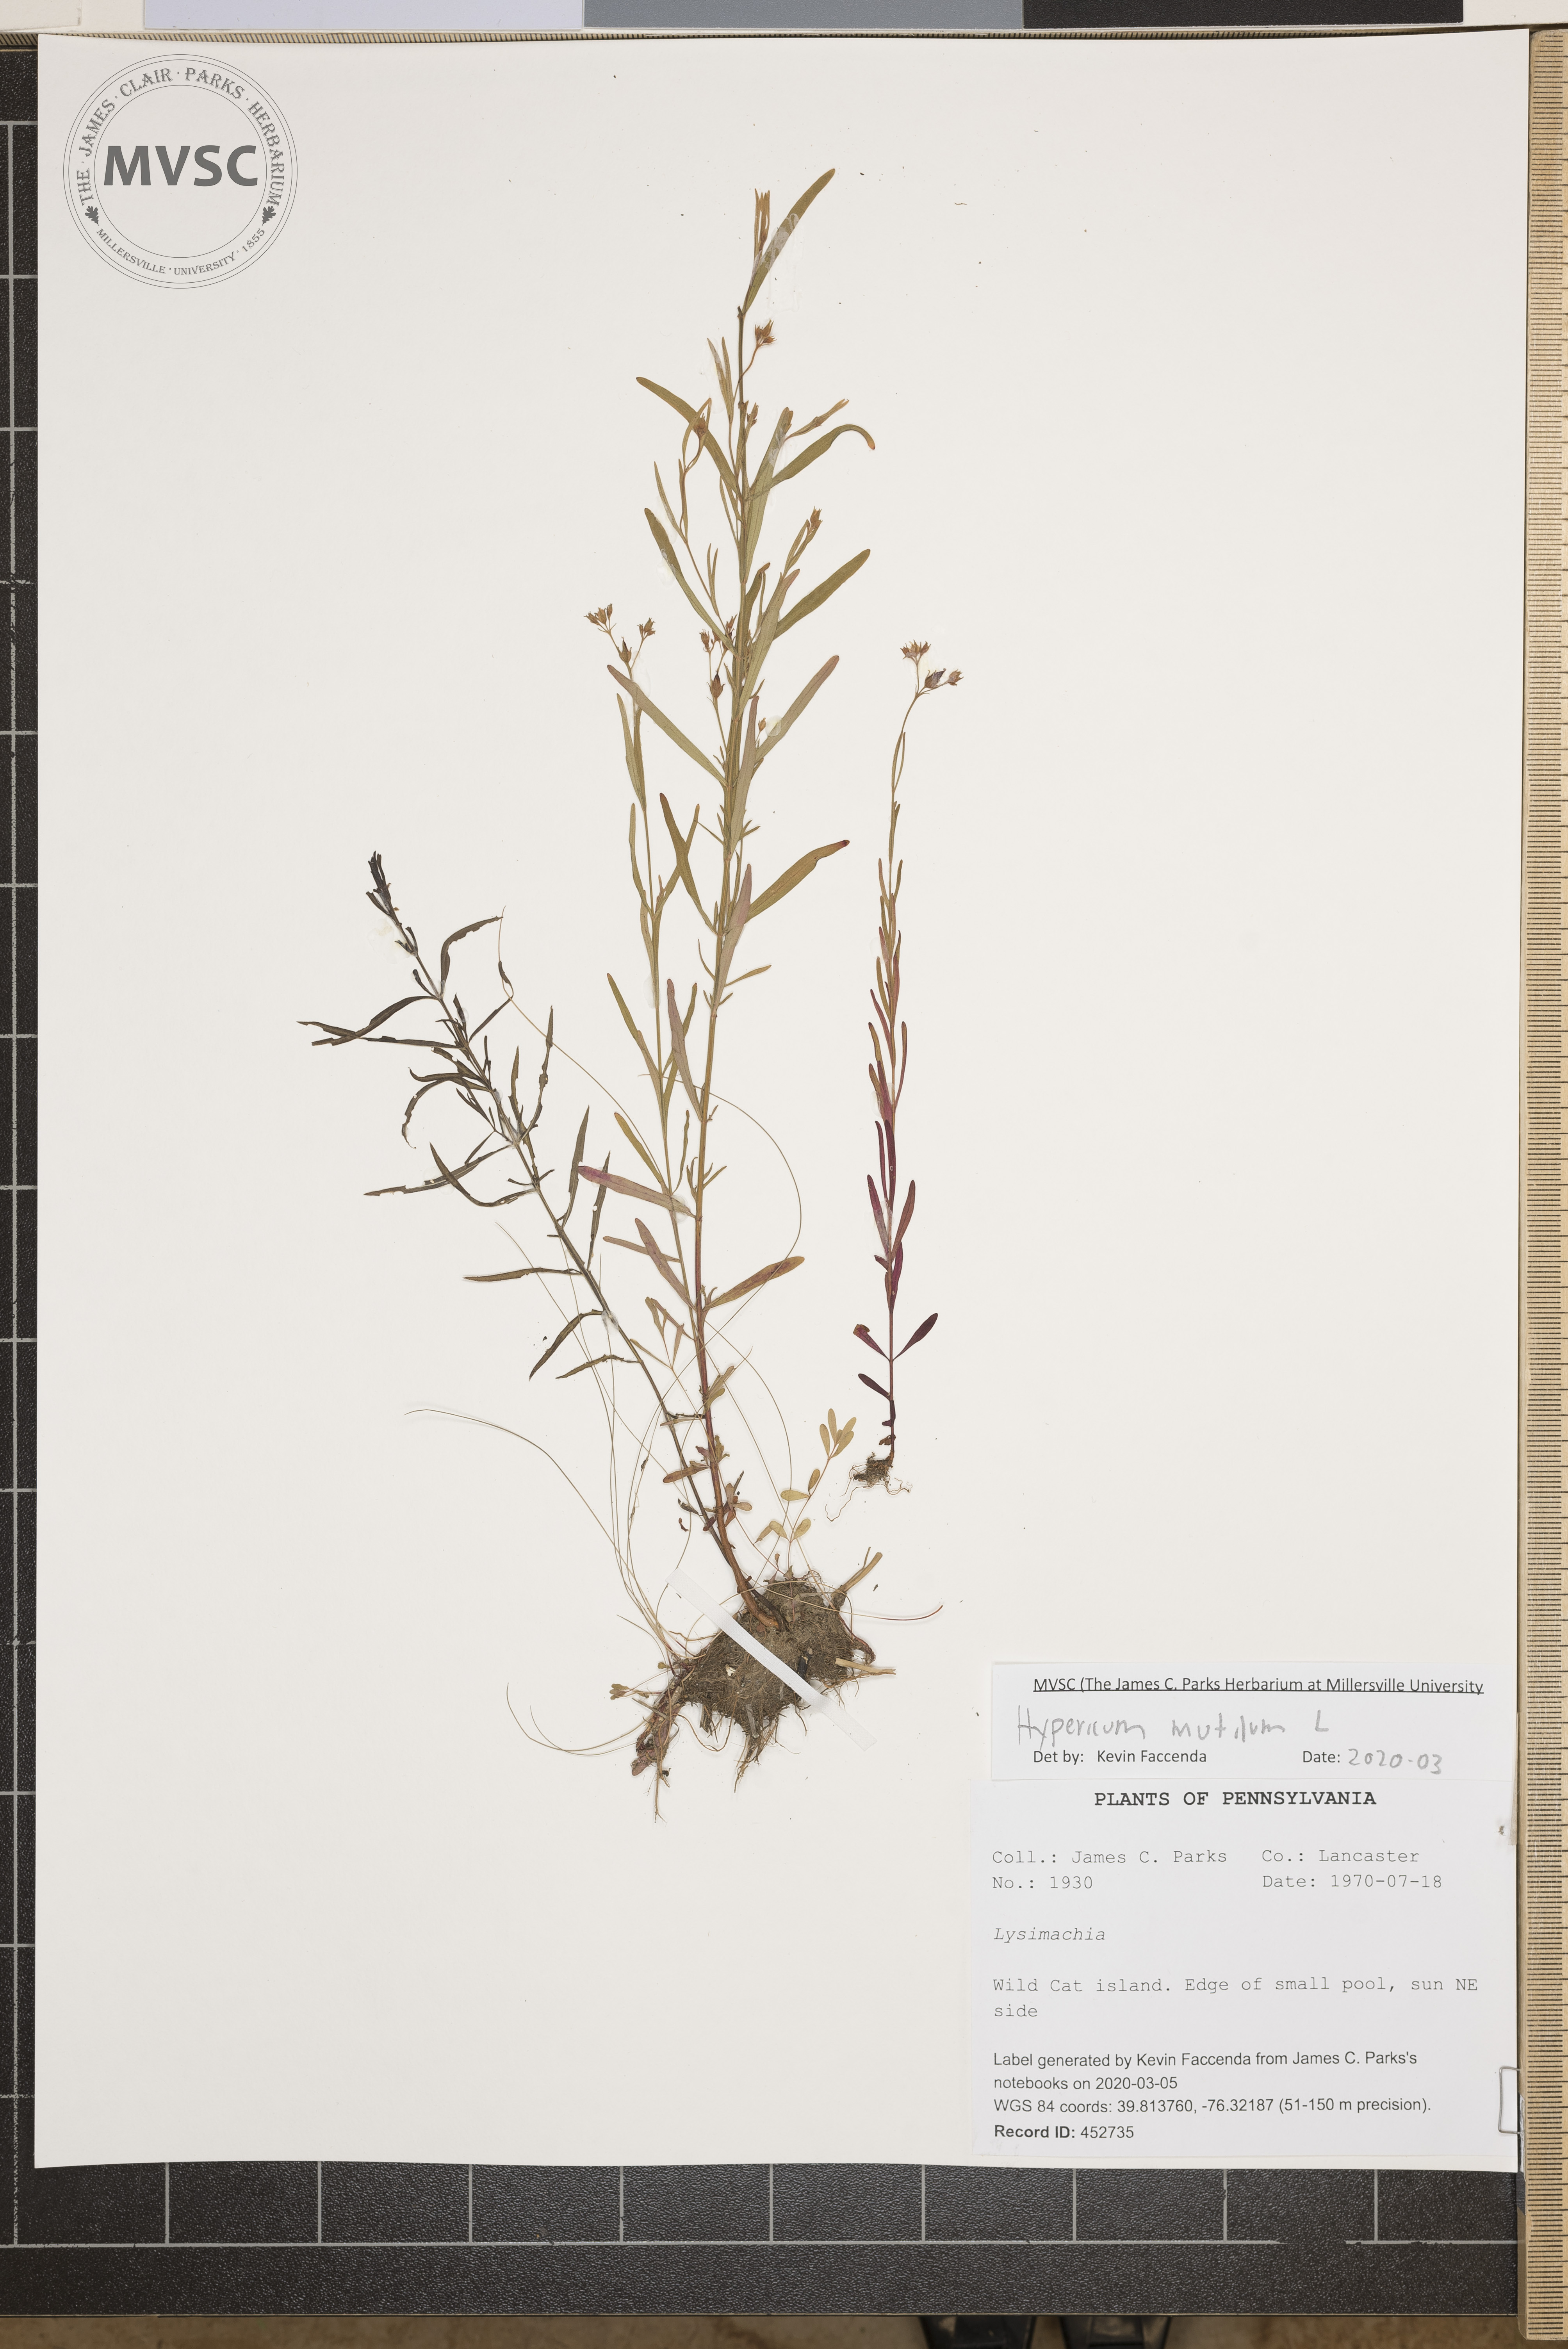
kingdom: Plantae
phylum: Tracheophyta
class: Magnoliopsida
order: Malpighiales
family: Hypericaceae
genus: Hypericum
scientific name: Hypericum mutilum
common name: Dwarf st. john's-wort
